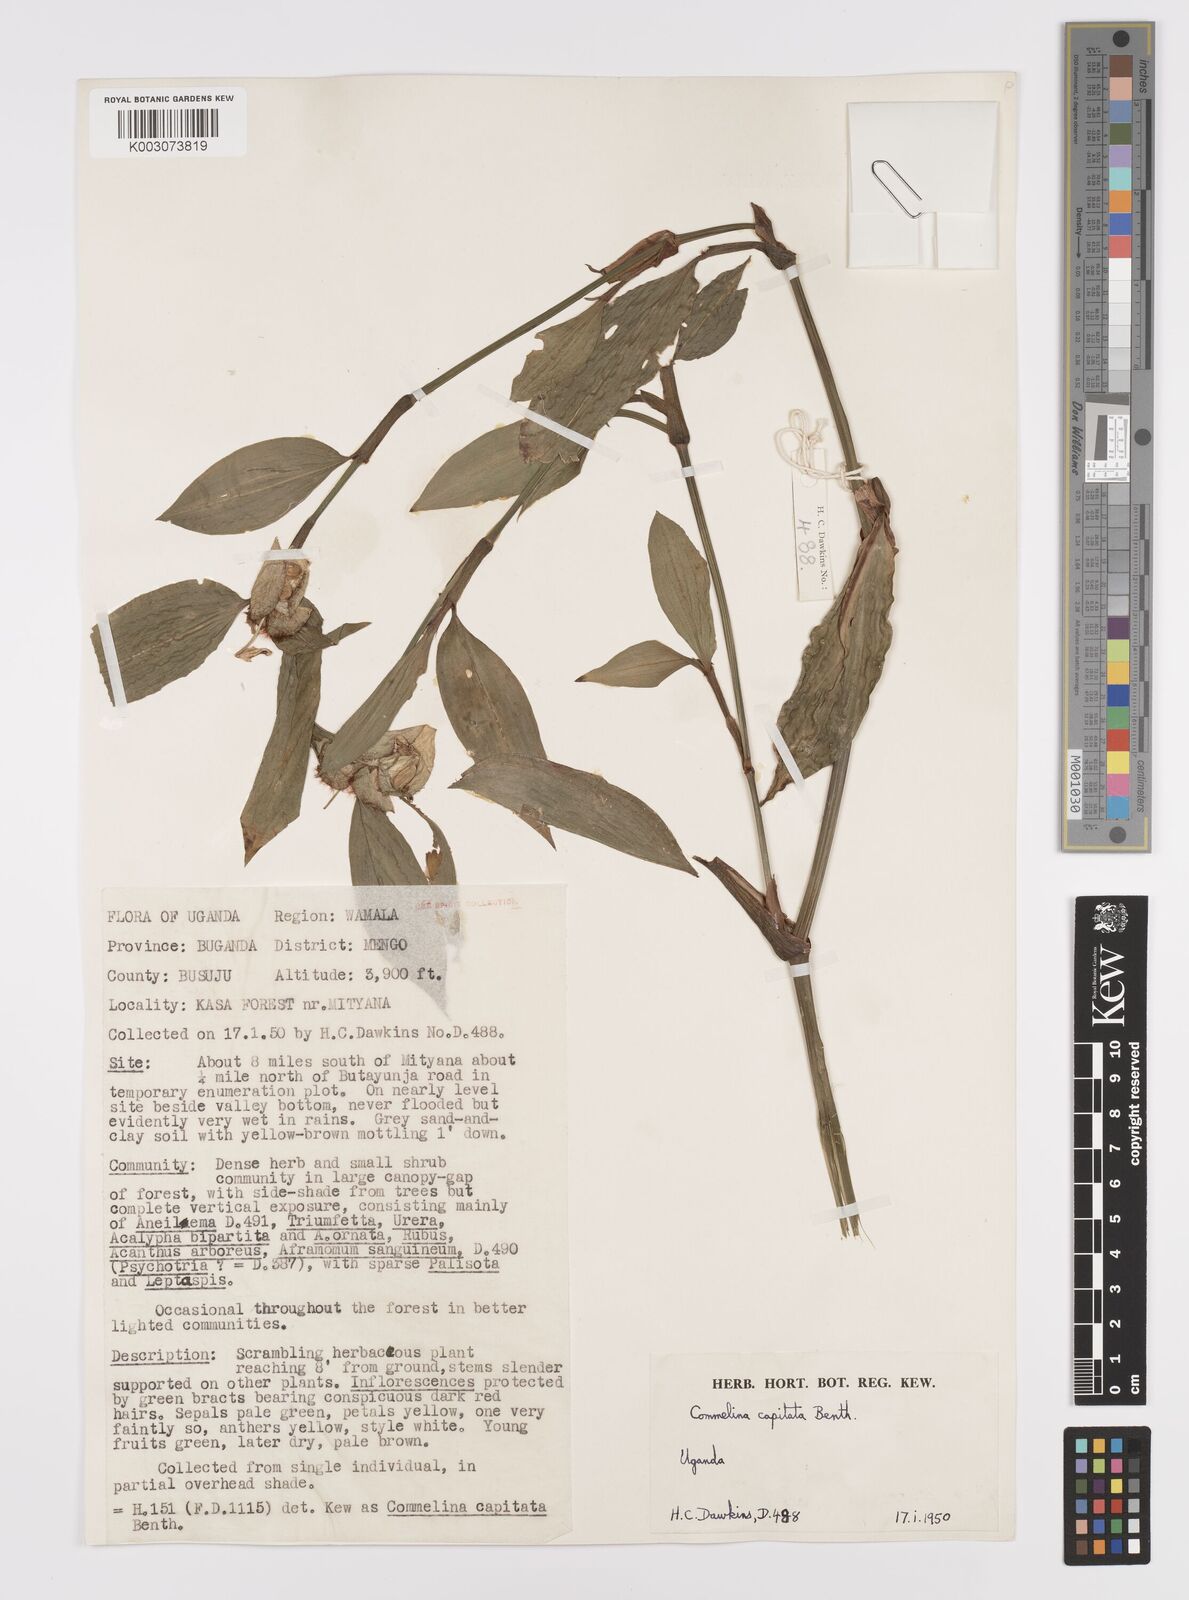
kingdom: Plantae
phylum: Tracheophyta
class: Liliopsida
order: Commelinales
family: Commelinaceae
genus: Commelina
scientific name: Commelina capitata
